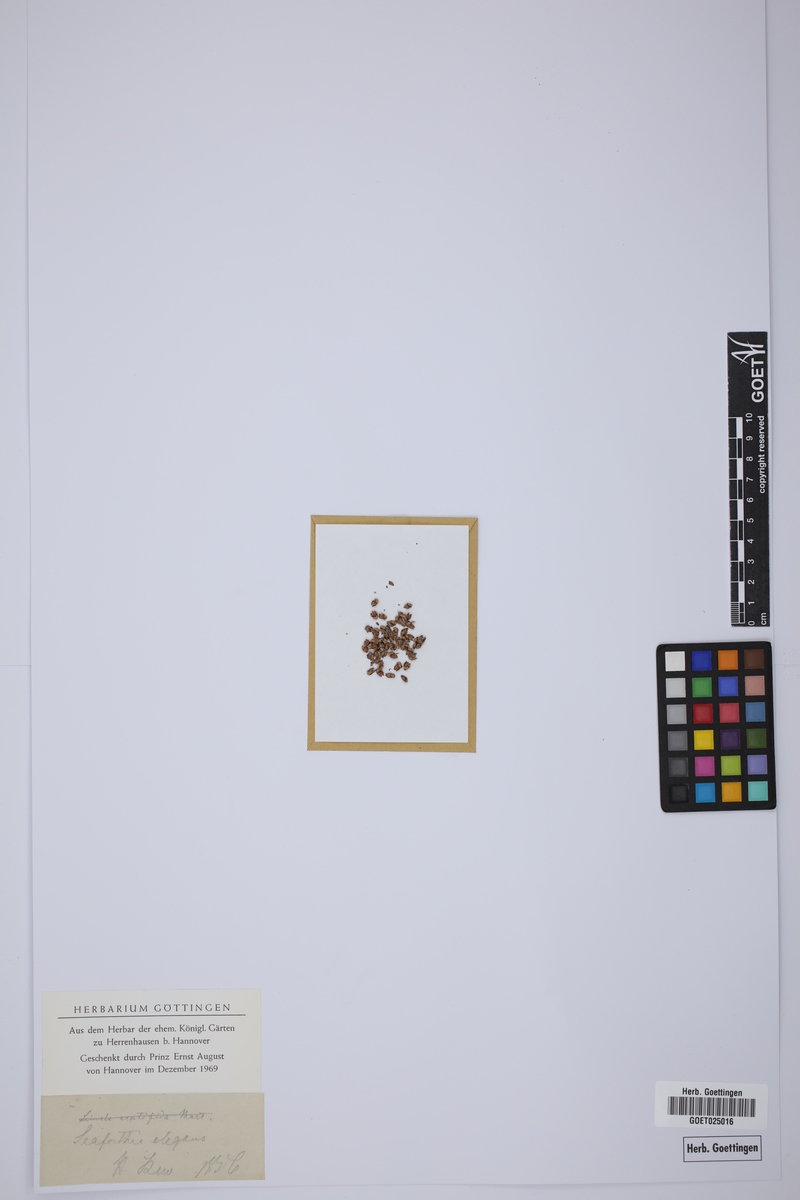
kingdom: Plantae
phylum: Tracheophyta
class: Liliopsida
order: Arecales
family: Arecaceae
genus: Ptychosperma
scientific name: Ptychosperma elegans
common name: Alexander palm
